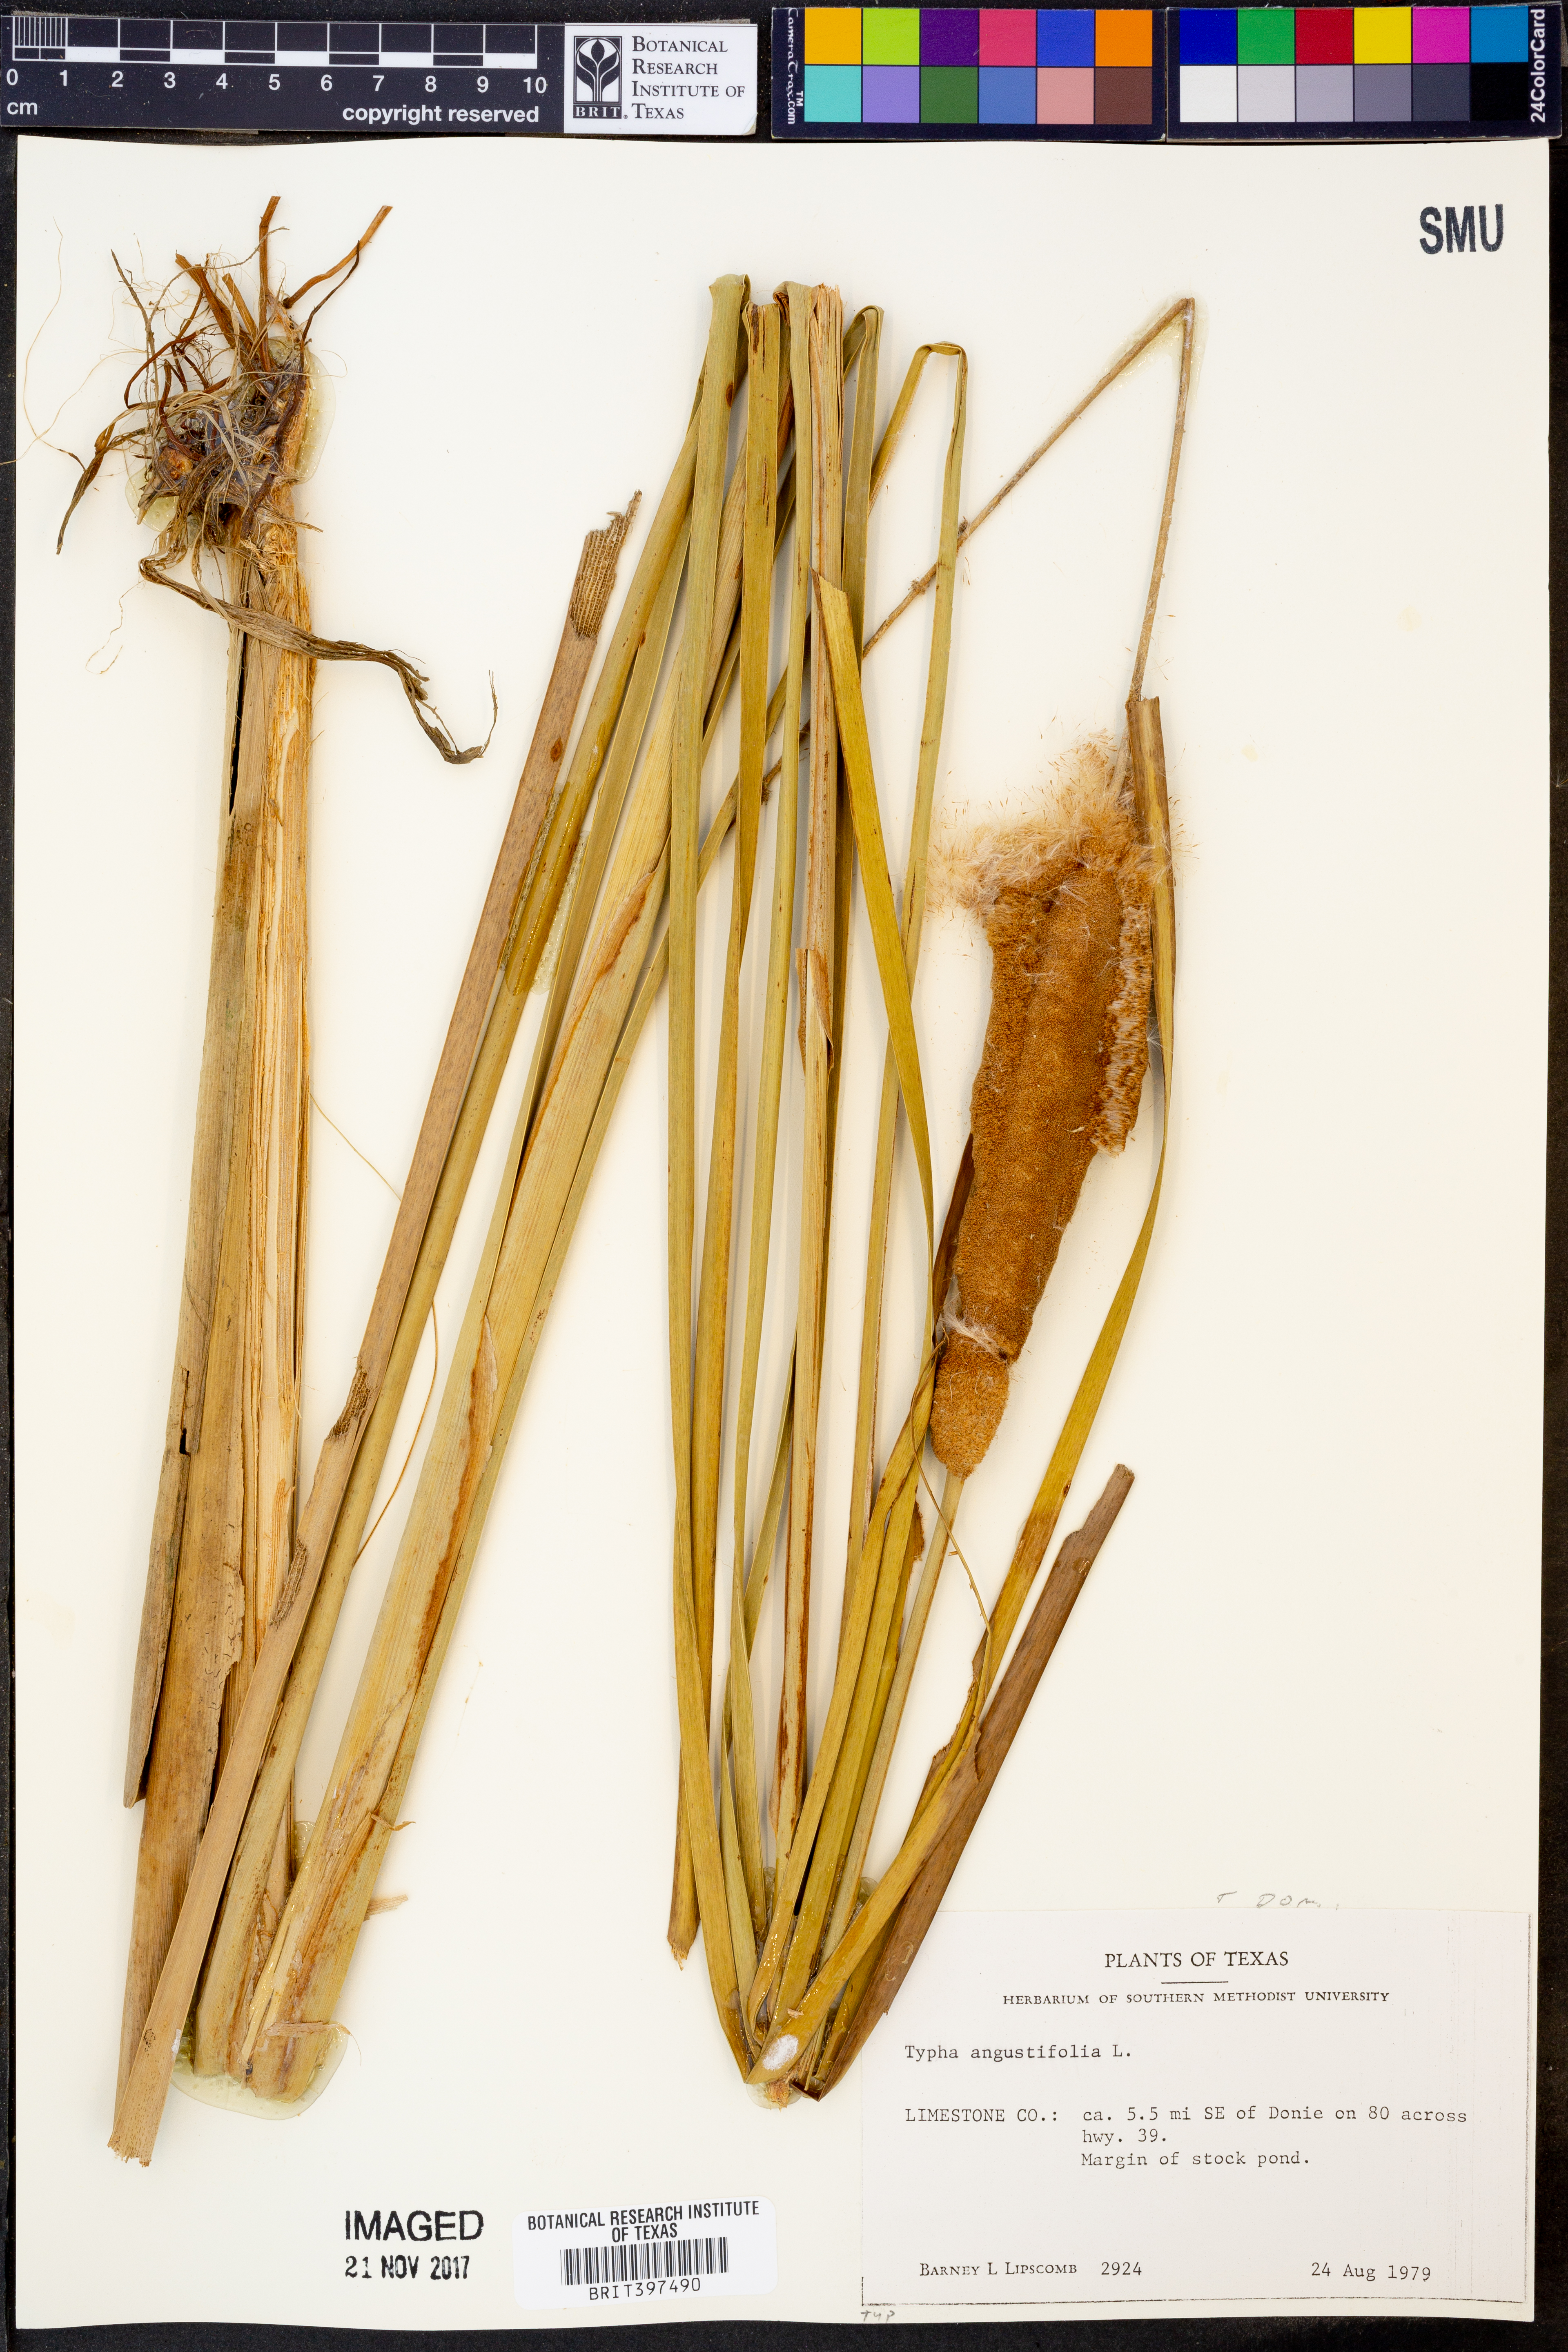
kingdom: Plantae
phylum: Tracheophyta
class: Liliopsida
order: Poales
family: Typhaceae
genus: Typha
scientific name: Typha angustifolia
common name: Lesser bulrush
